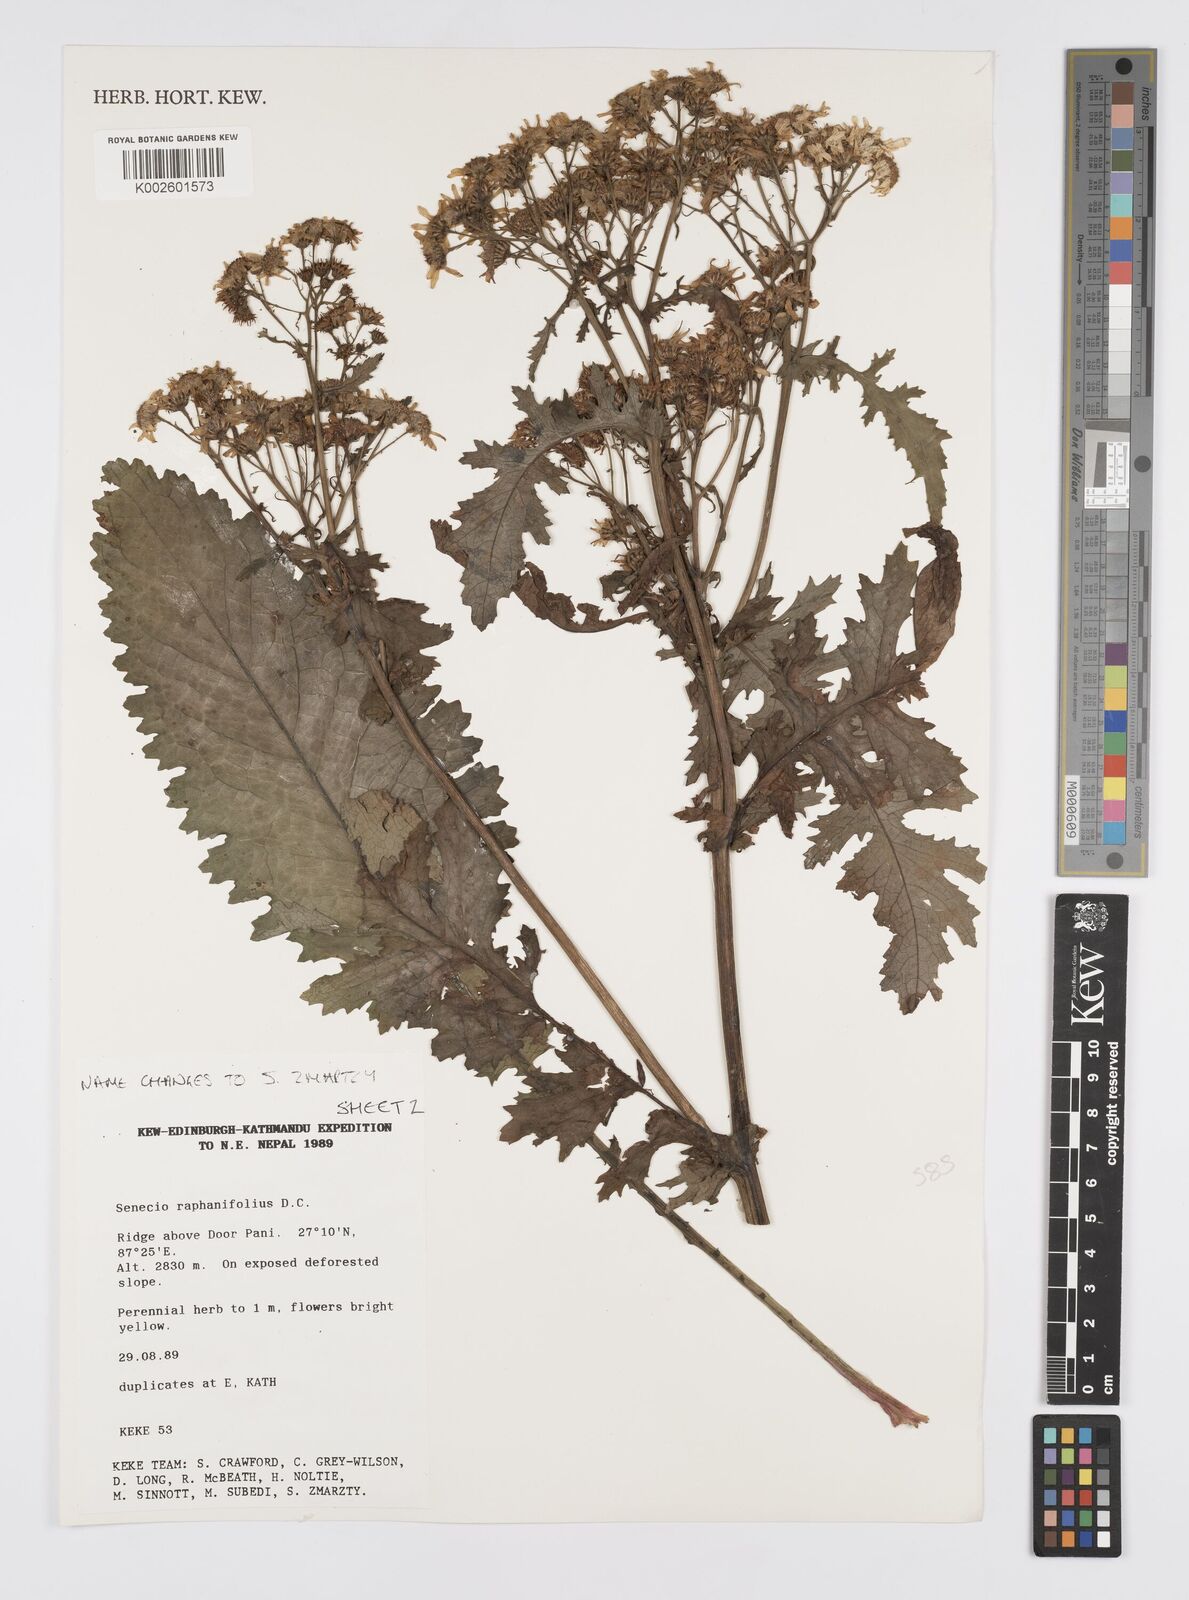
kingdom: Plantae
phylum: Tracheophyta
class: Magnoliopsida
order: Asterales
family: Asteraceae
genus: Jacobaea
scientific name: Jacobaea raphanifolia
